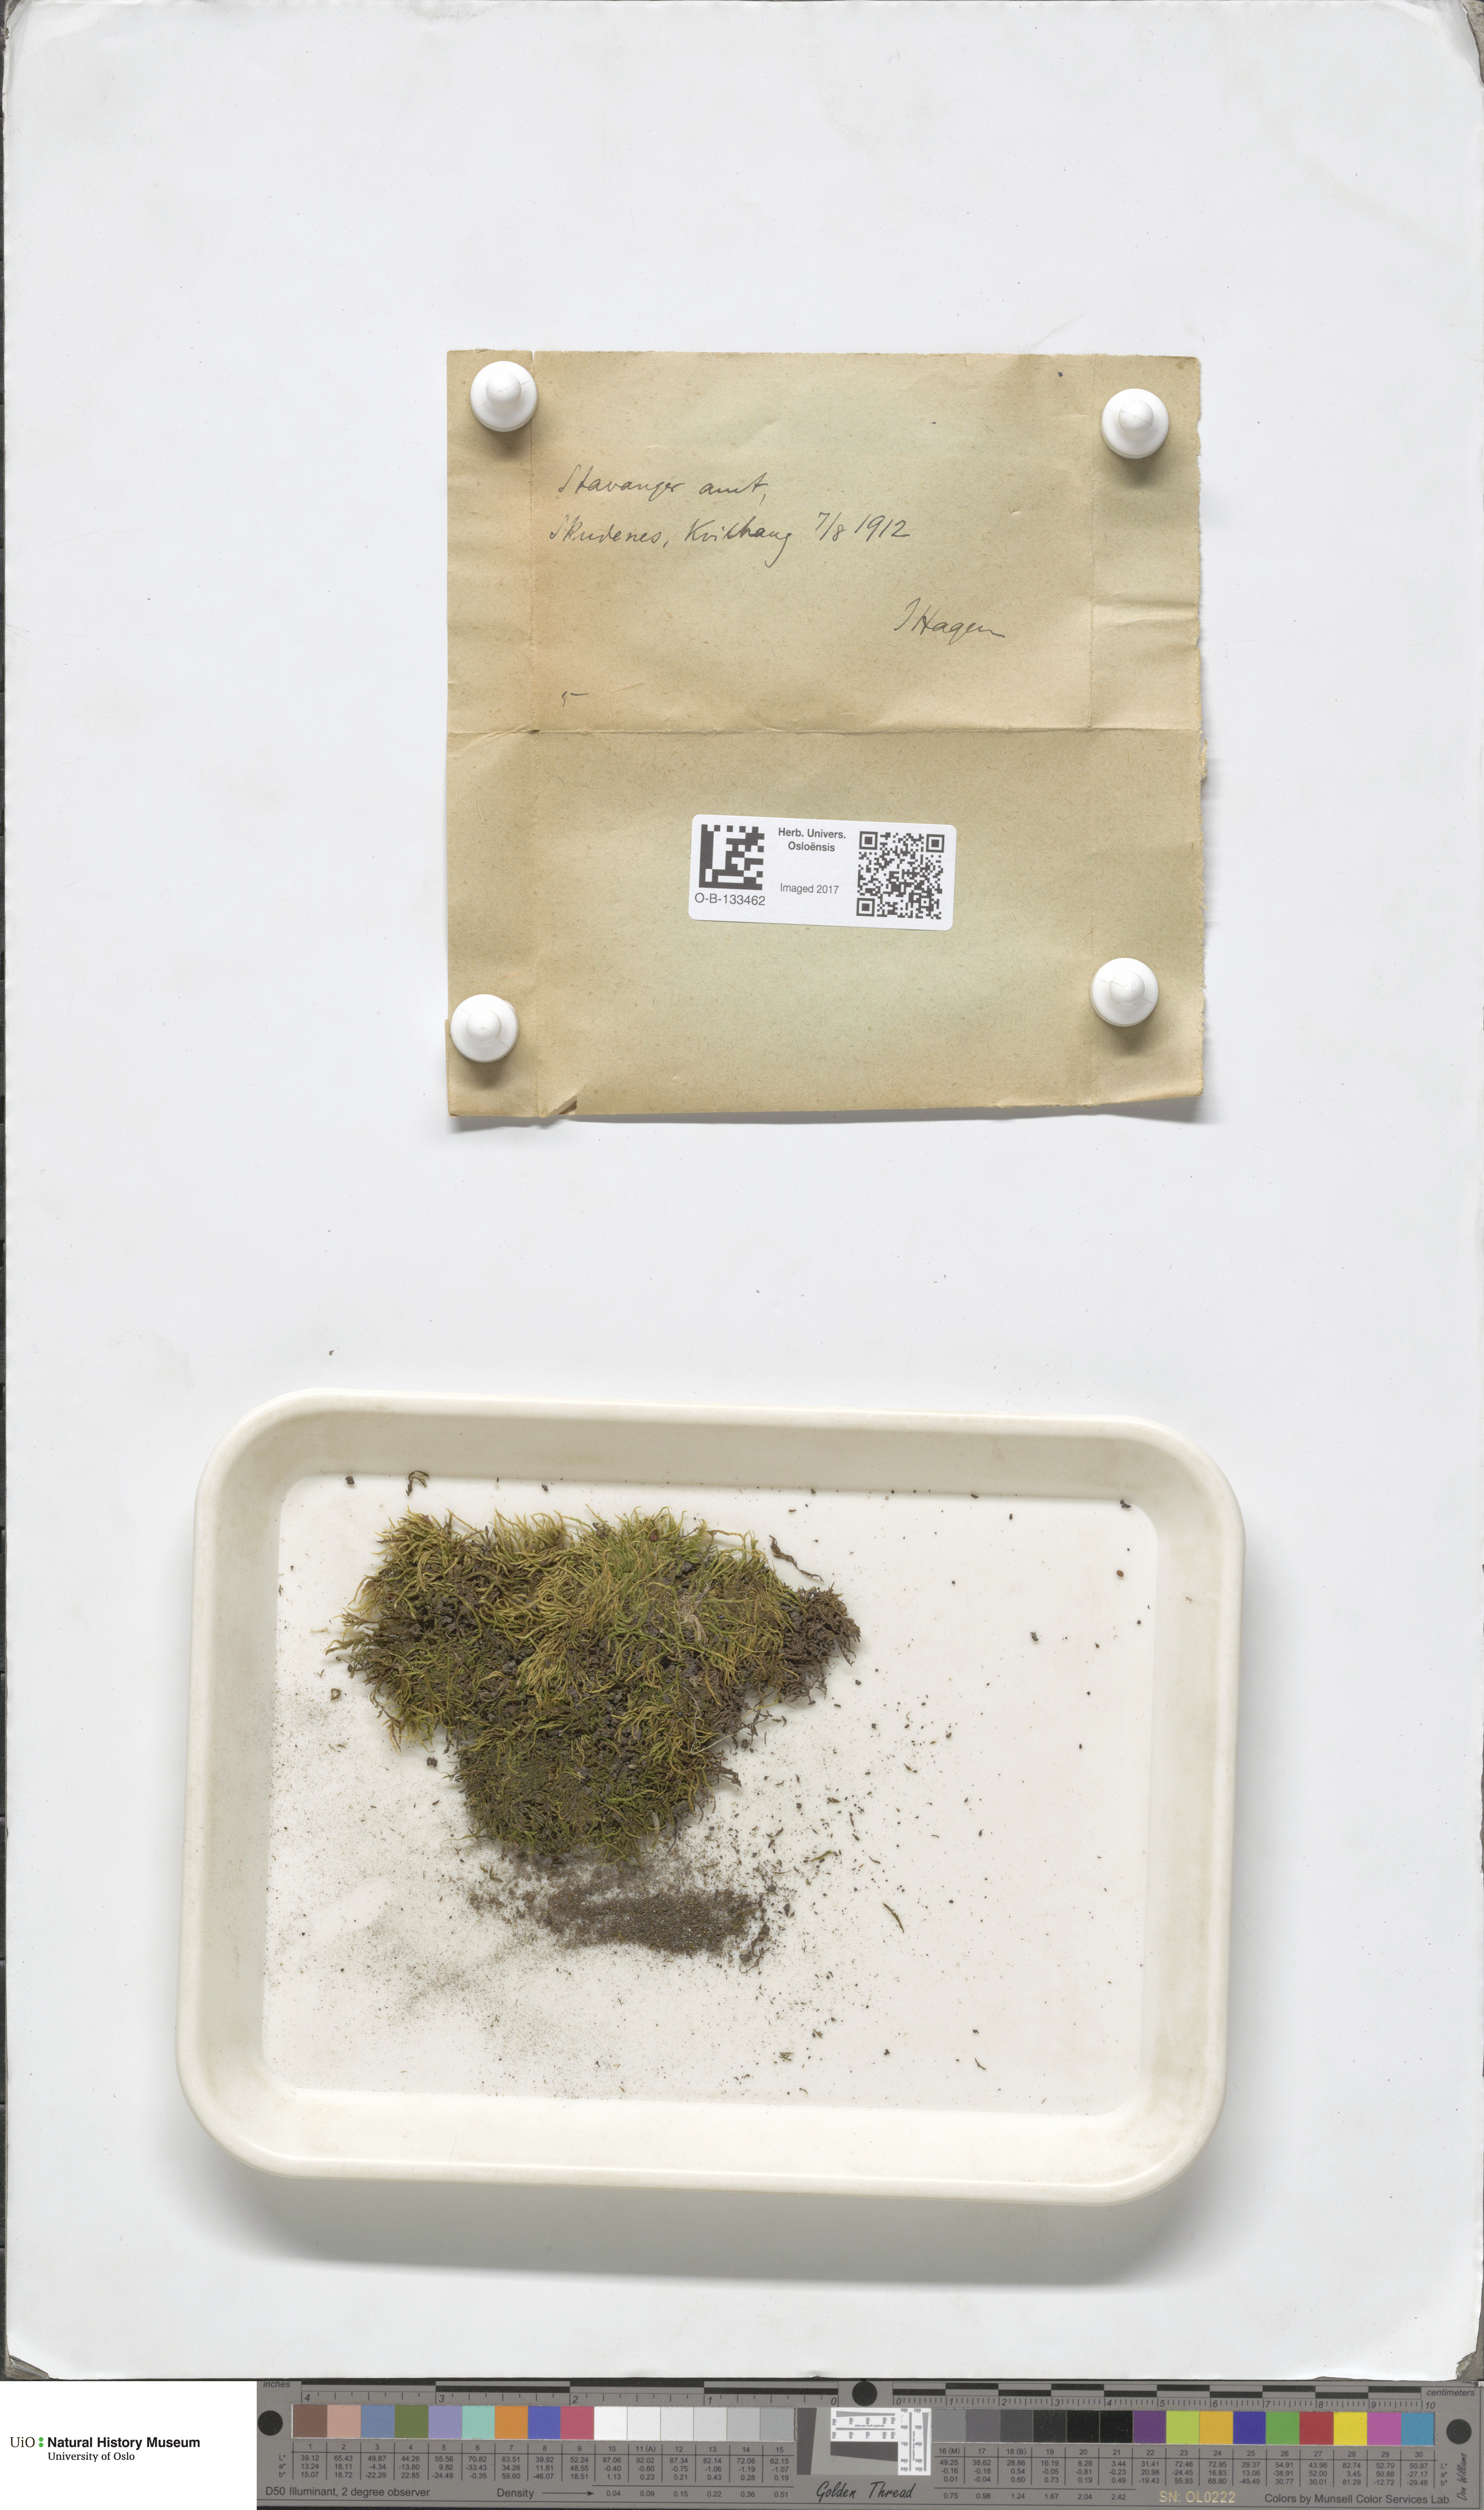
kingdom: Plantae
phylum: Bryophyta
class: Bryopsida
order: Hypnales
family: Brachytheciaceae
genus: Sciuro-hypnum
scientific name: Sciuro-hypnum plumosum
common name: Rusty feather-moss
